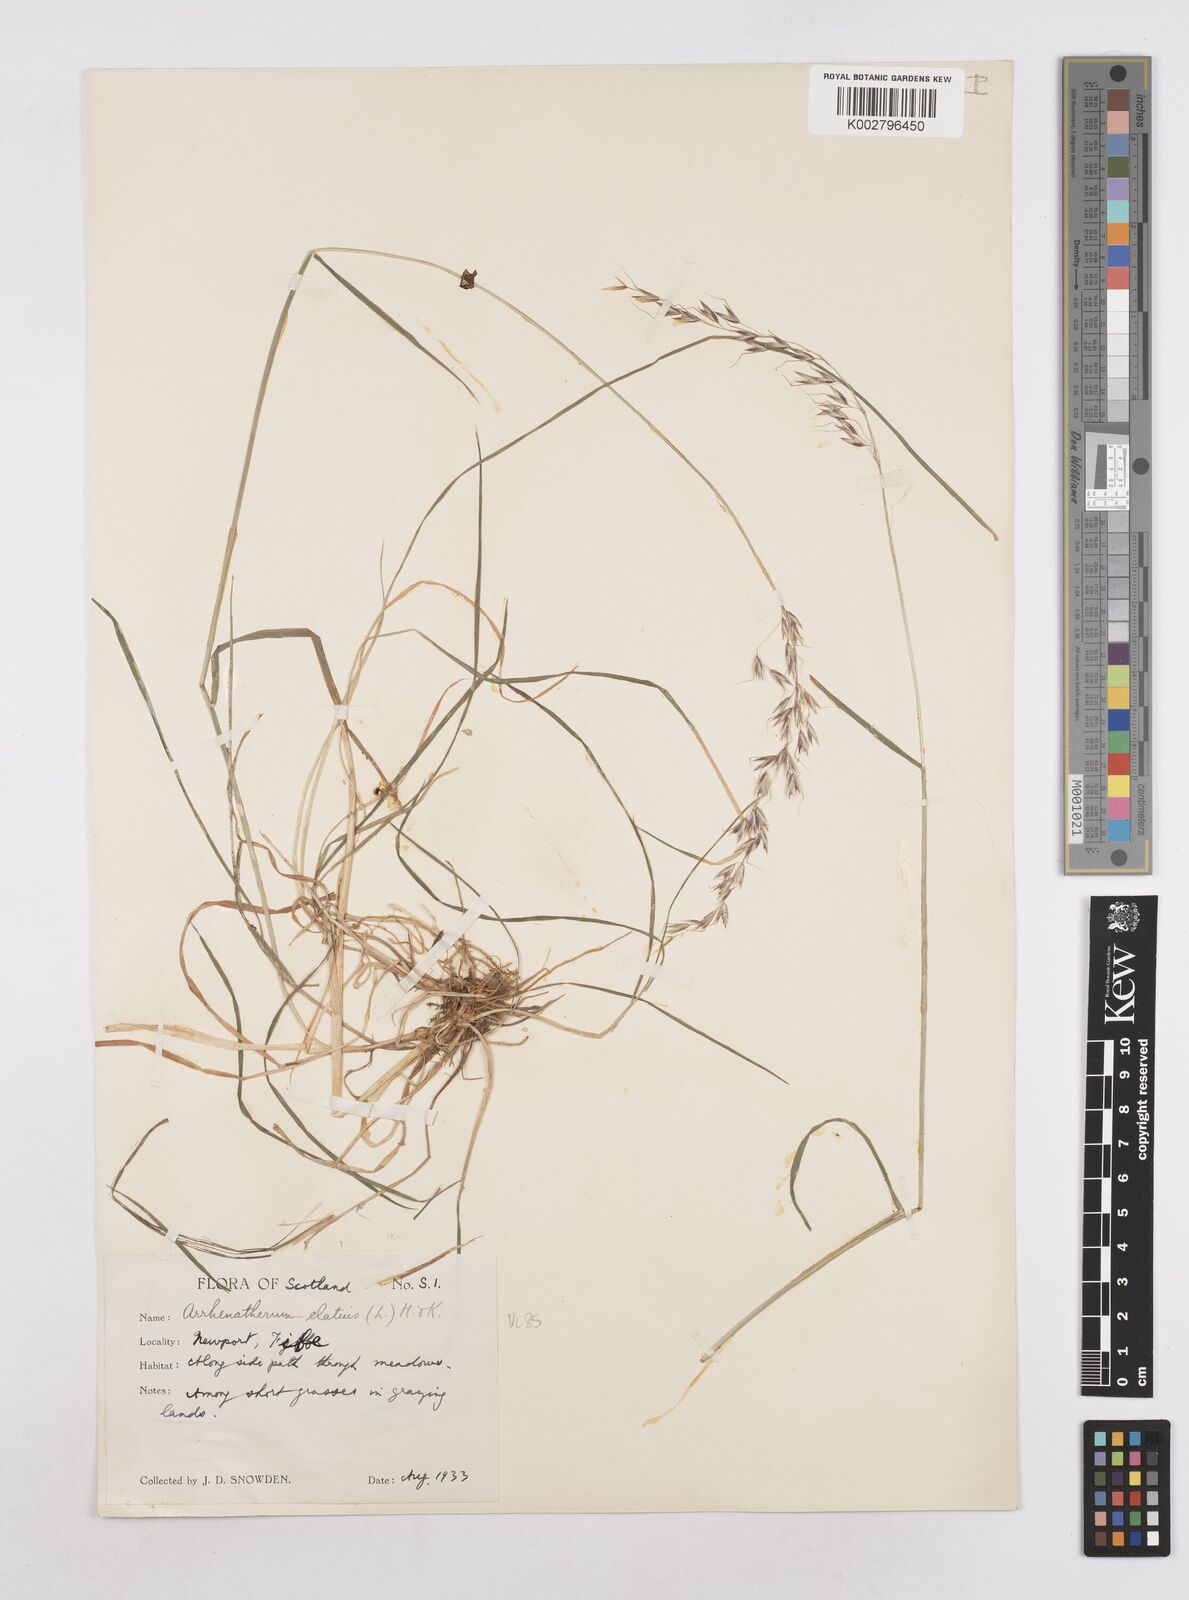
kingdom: Plantae
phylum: Tracheophyta
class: Liliopsida
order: Poales
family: Poaceae
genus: Arrhenatherum
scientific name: Arrhenatherum elatius
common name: Tall oatgrass
